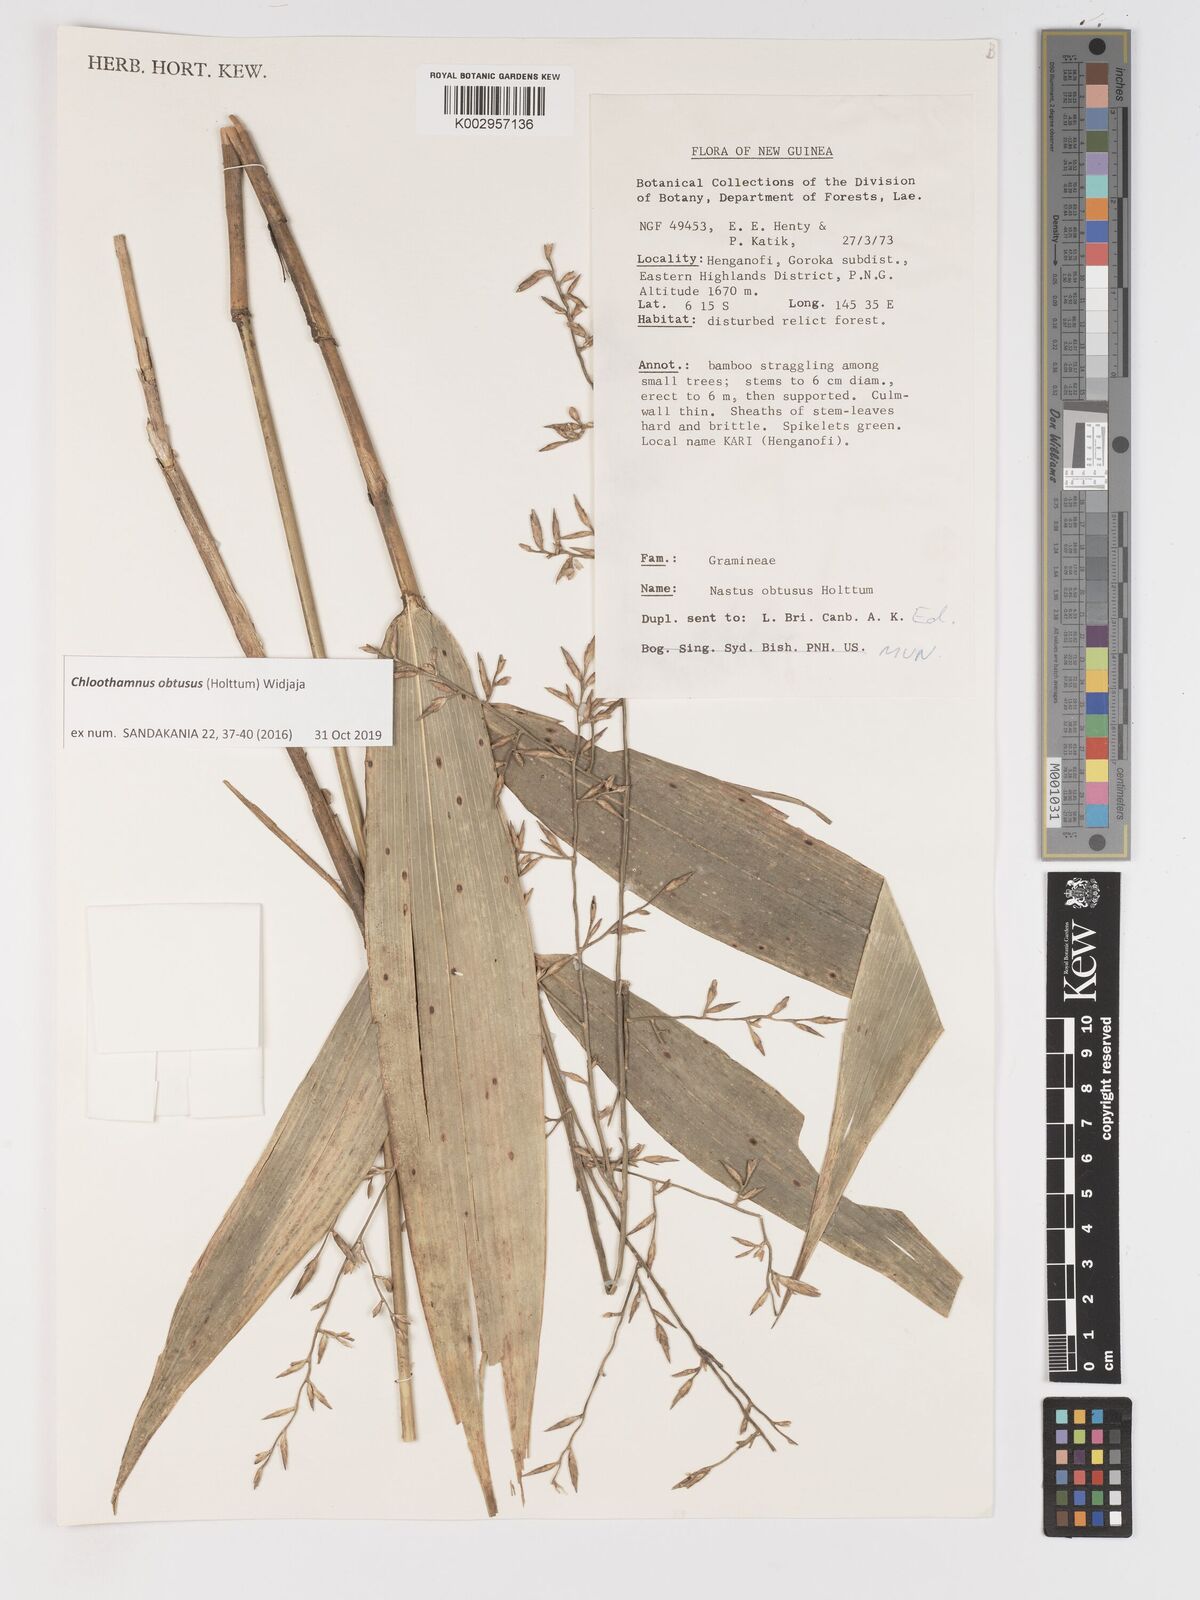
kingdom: Plantae
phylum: Tracheophyta
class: Liliopsida
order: Poales
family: Poaceae
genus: Chloothamnus
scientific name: Chloothamnus obtusus
